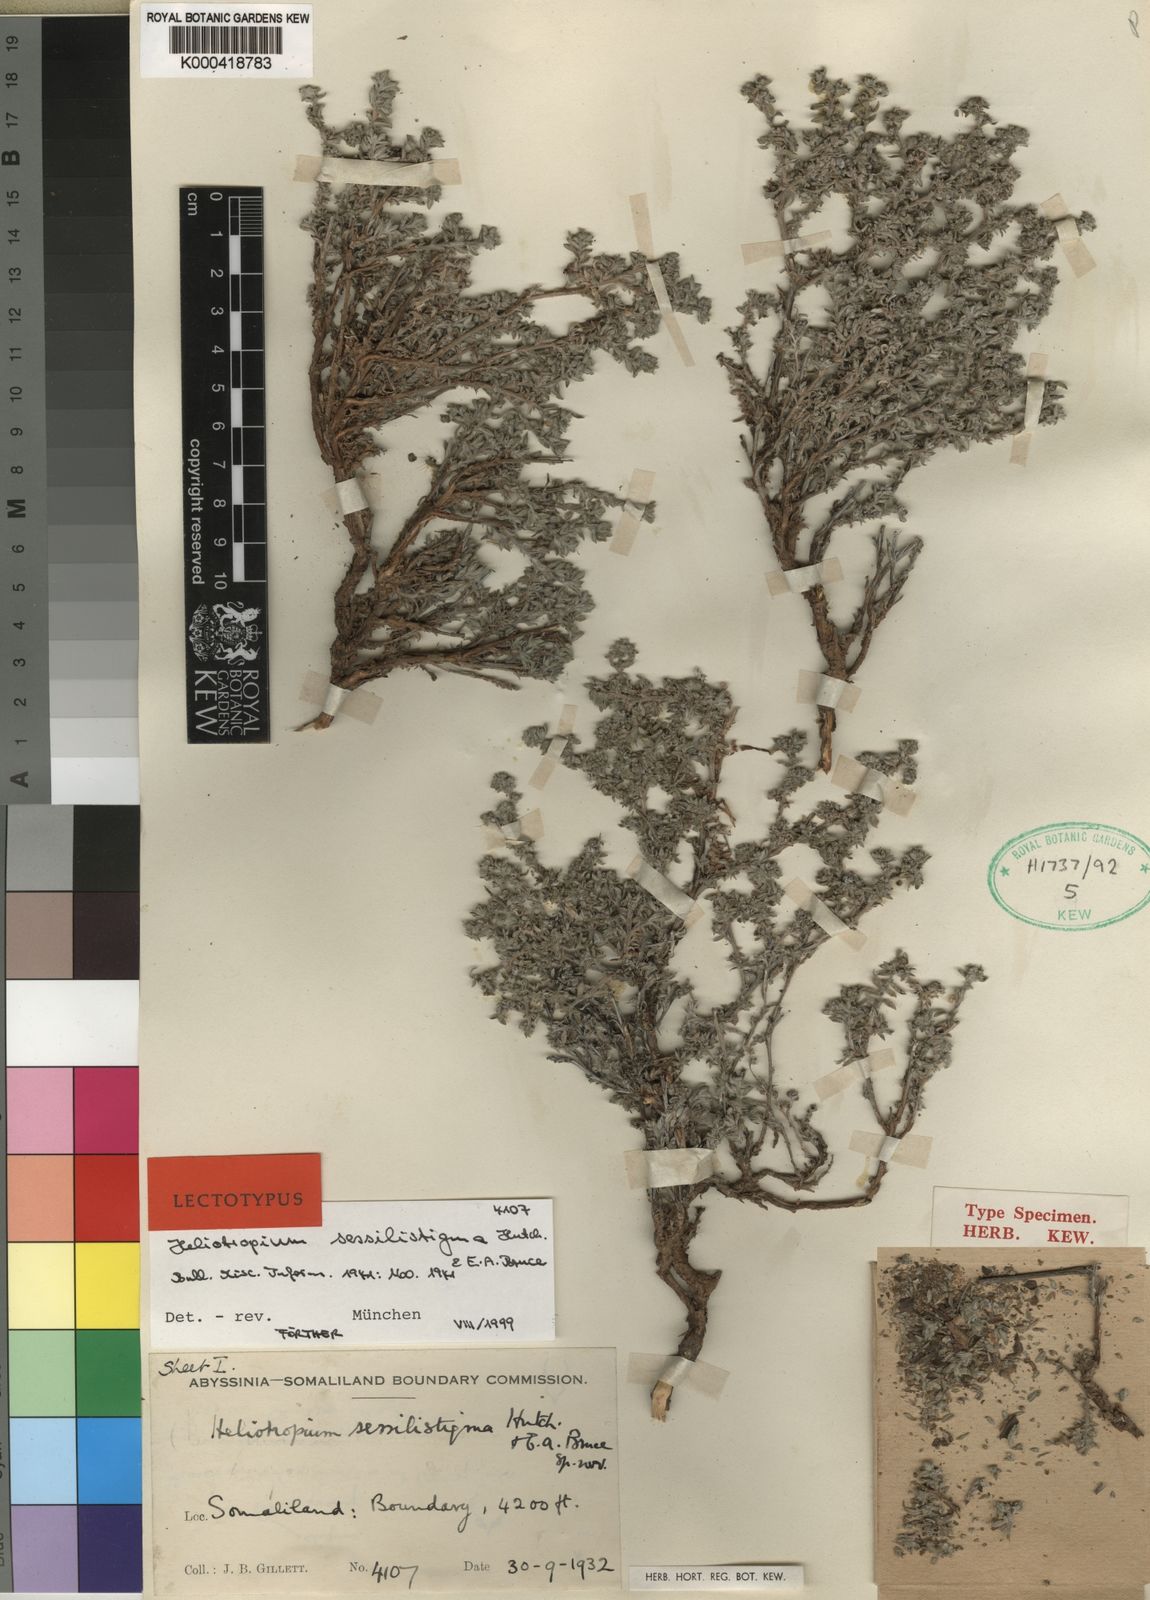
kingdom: Plantae
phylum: Tracheophyta
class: Magnoliopsida
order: Boraginales
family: Heliotropiaceae
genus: Euploca
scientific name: Euploca sessilistigma
